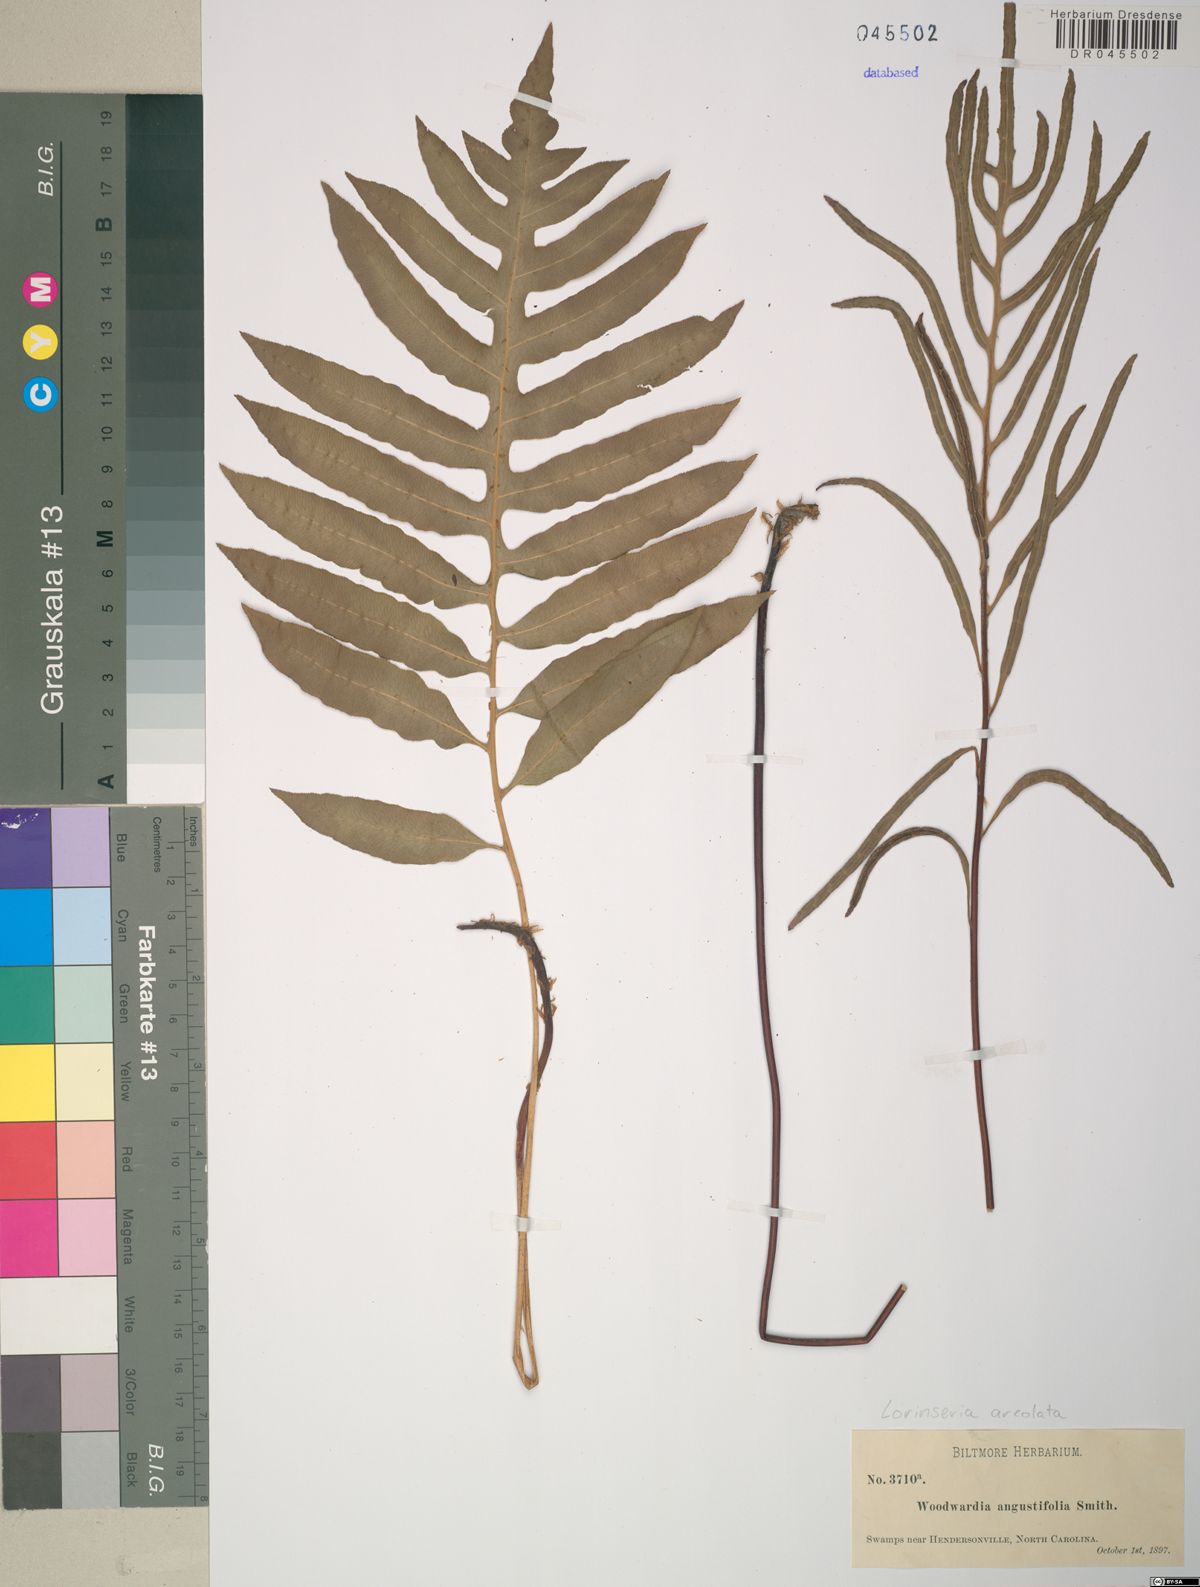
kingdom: Plantae
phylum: Tracheophyta
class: Polypodiopsida
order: Polypodiales
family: Blechnaceae
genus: Lorinseria
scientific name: Lorinseria areolata
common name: Dwarf chain fern
